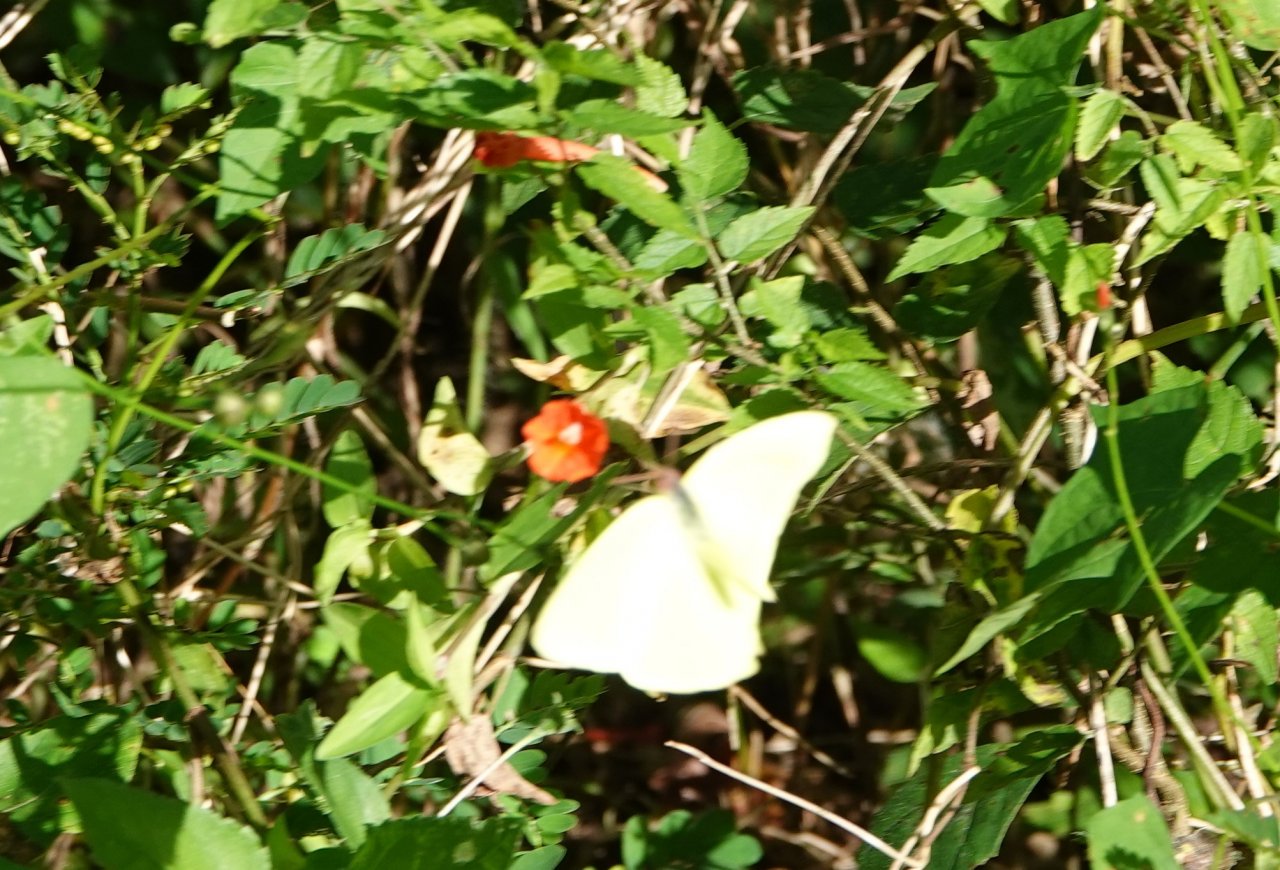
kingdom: Animalia
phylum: Arthropoda
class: Insecta
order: Lepidoptera
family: Pieridae
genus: Phoebis
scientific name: Phoebis sennae
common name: Cloudless Sulphur
